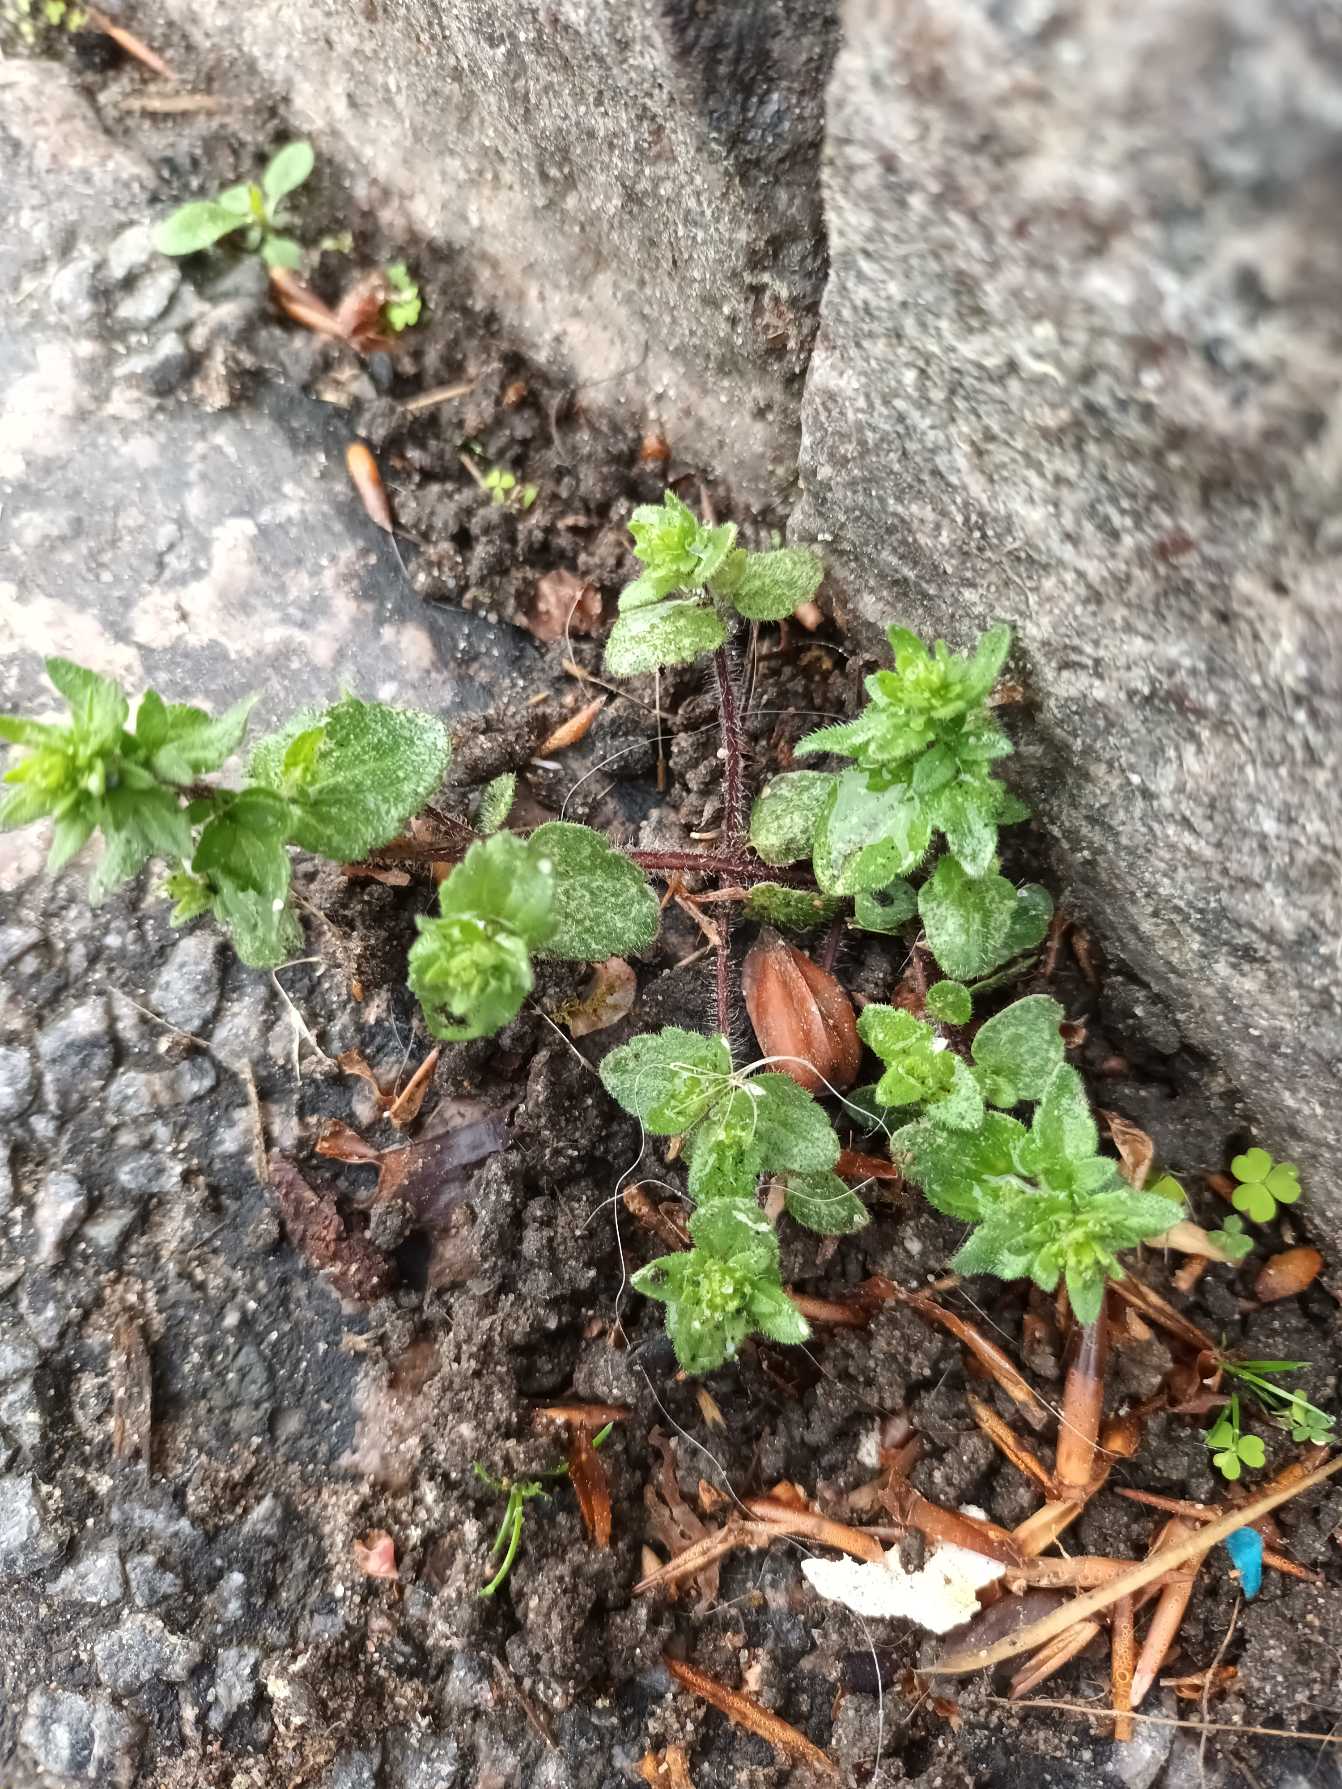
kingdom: Plantae
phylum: Tracheophyta
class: Magnoliopsida
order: Lamiales
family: Plantaginaceae
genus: Veronica
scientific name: Veronica arvensis
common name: Mark-ærenpris
